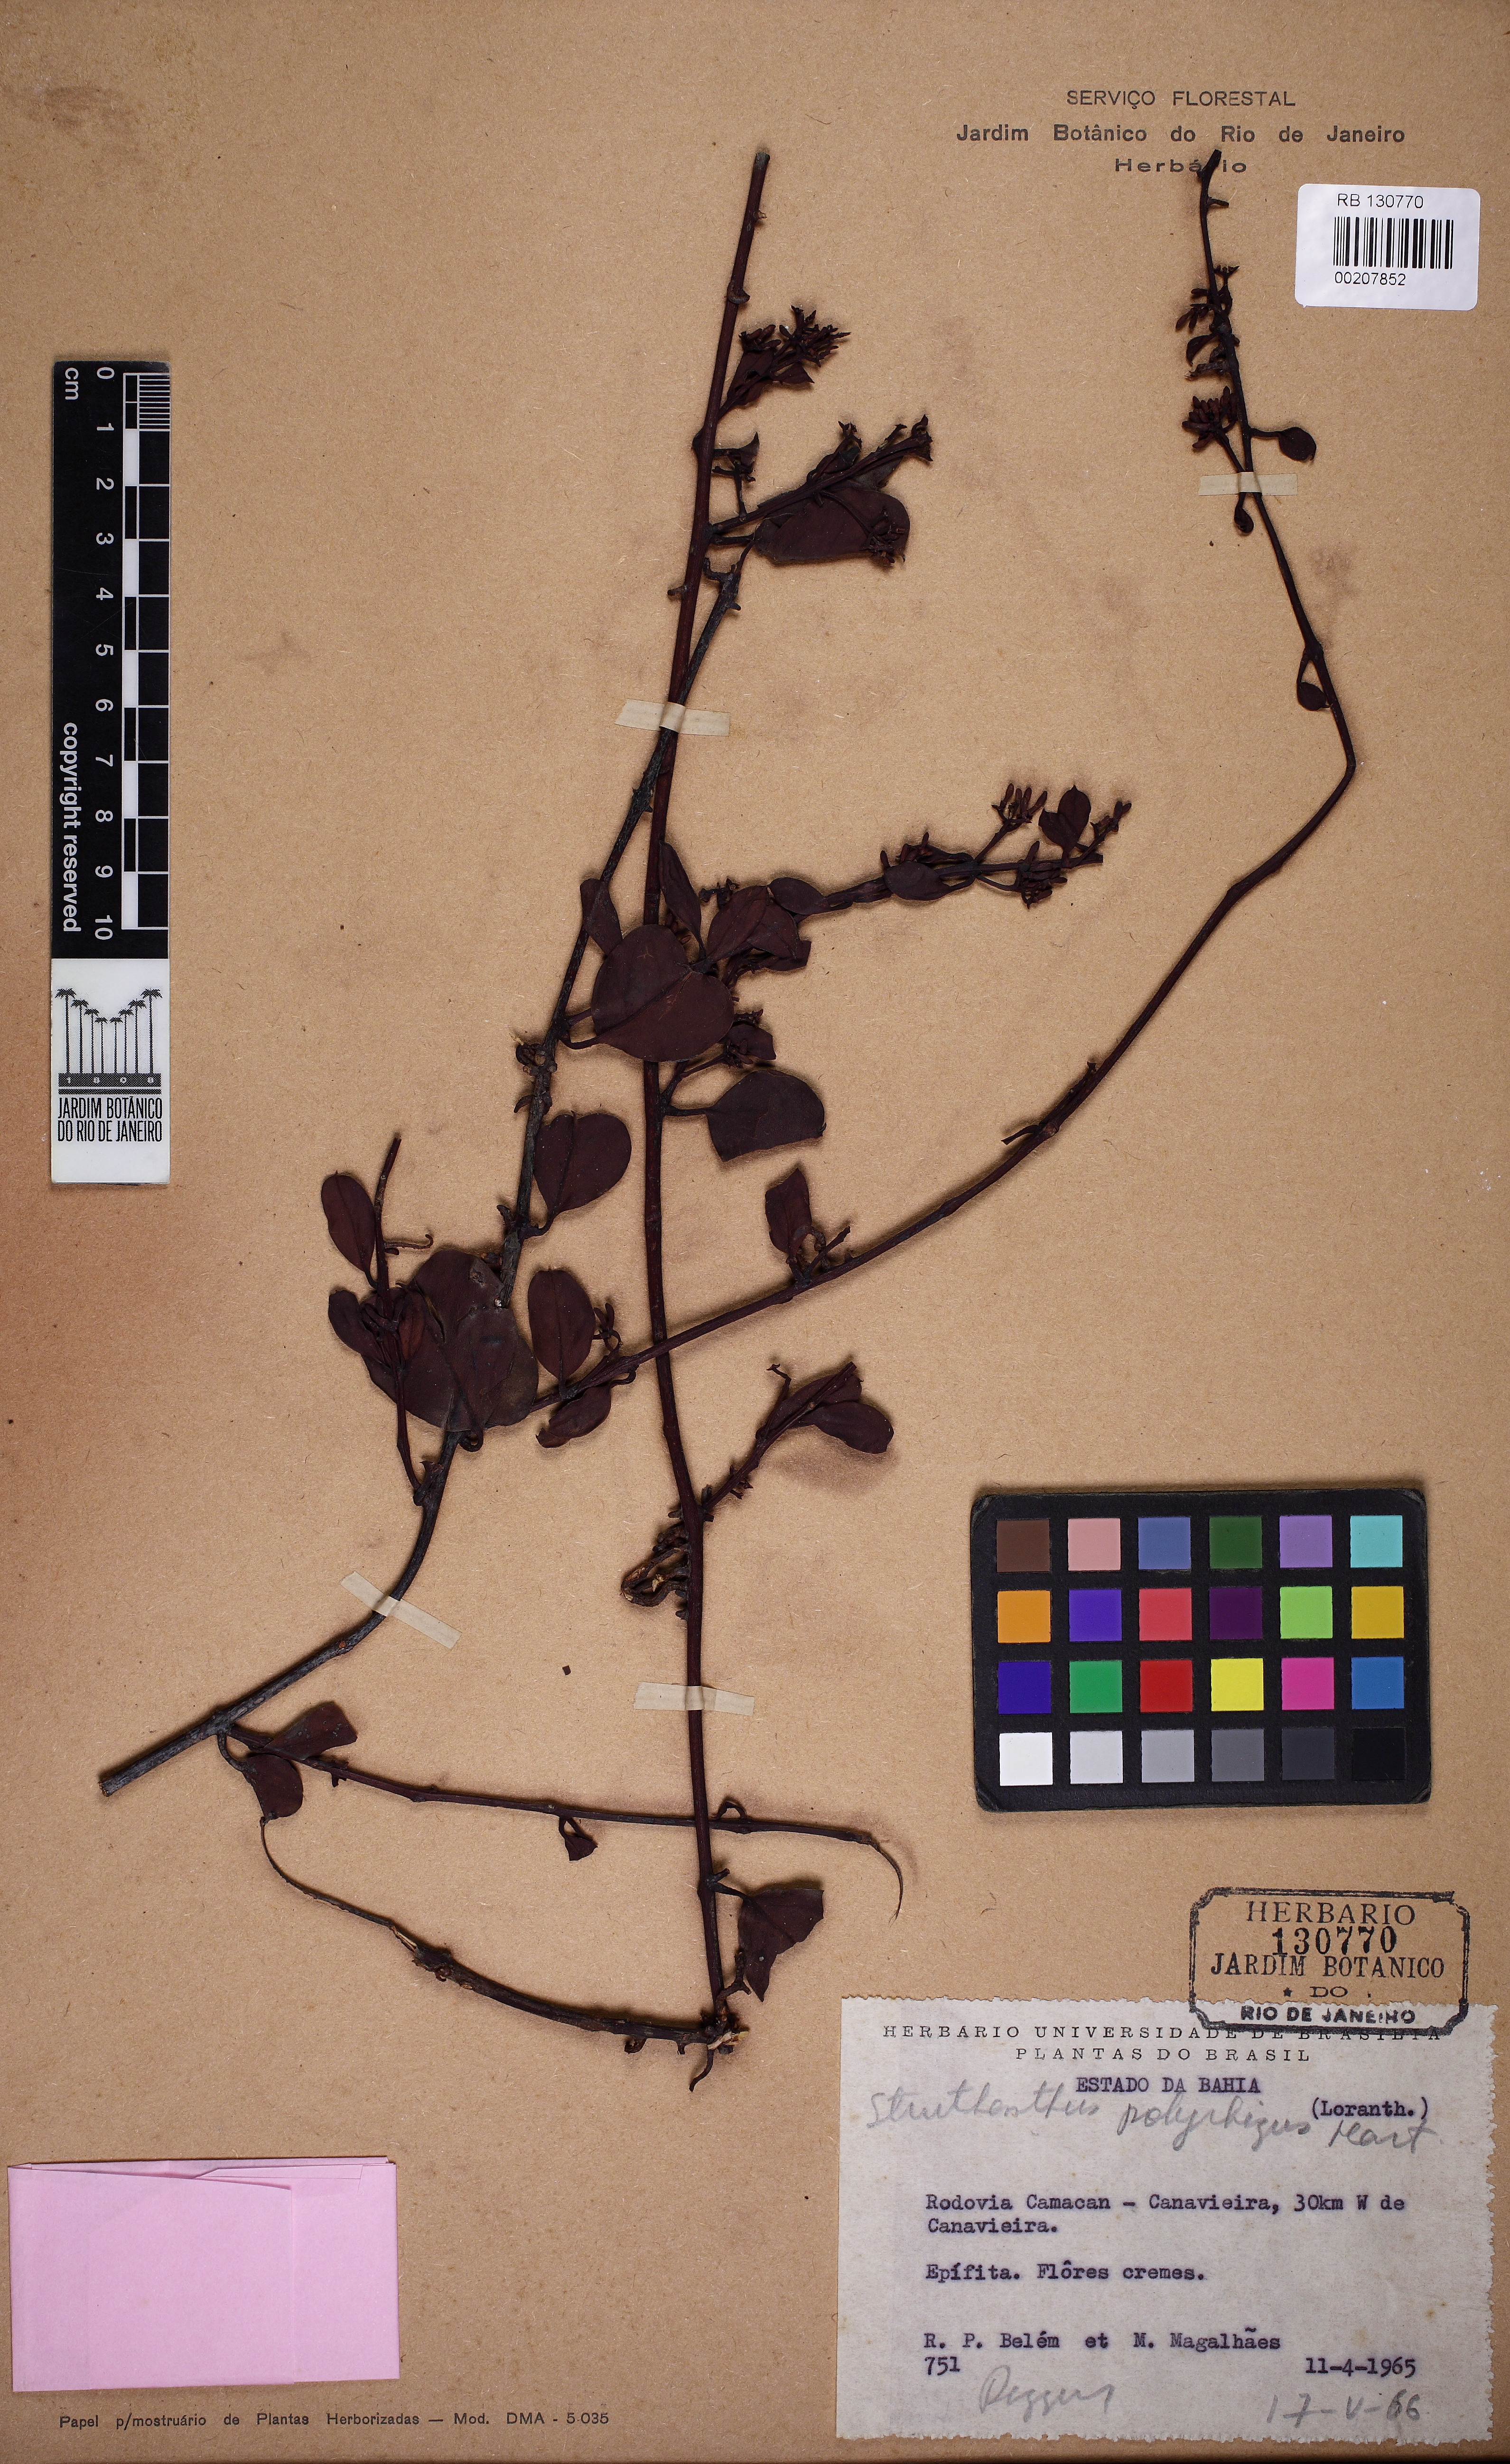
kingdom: Plantae
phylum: Tracheophyta
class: Magnoliopsida
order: Santalales
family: Loranthaceae
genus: Struthanthus
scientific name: Struthanthus retusus
